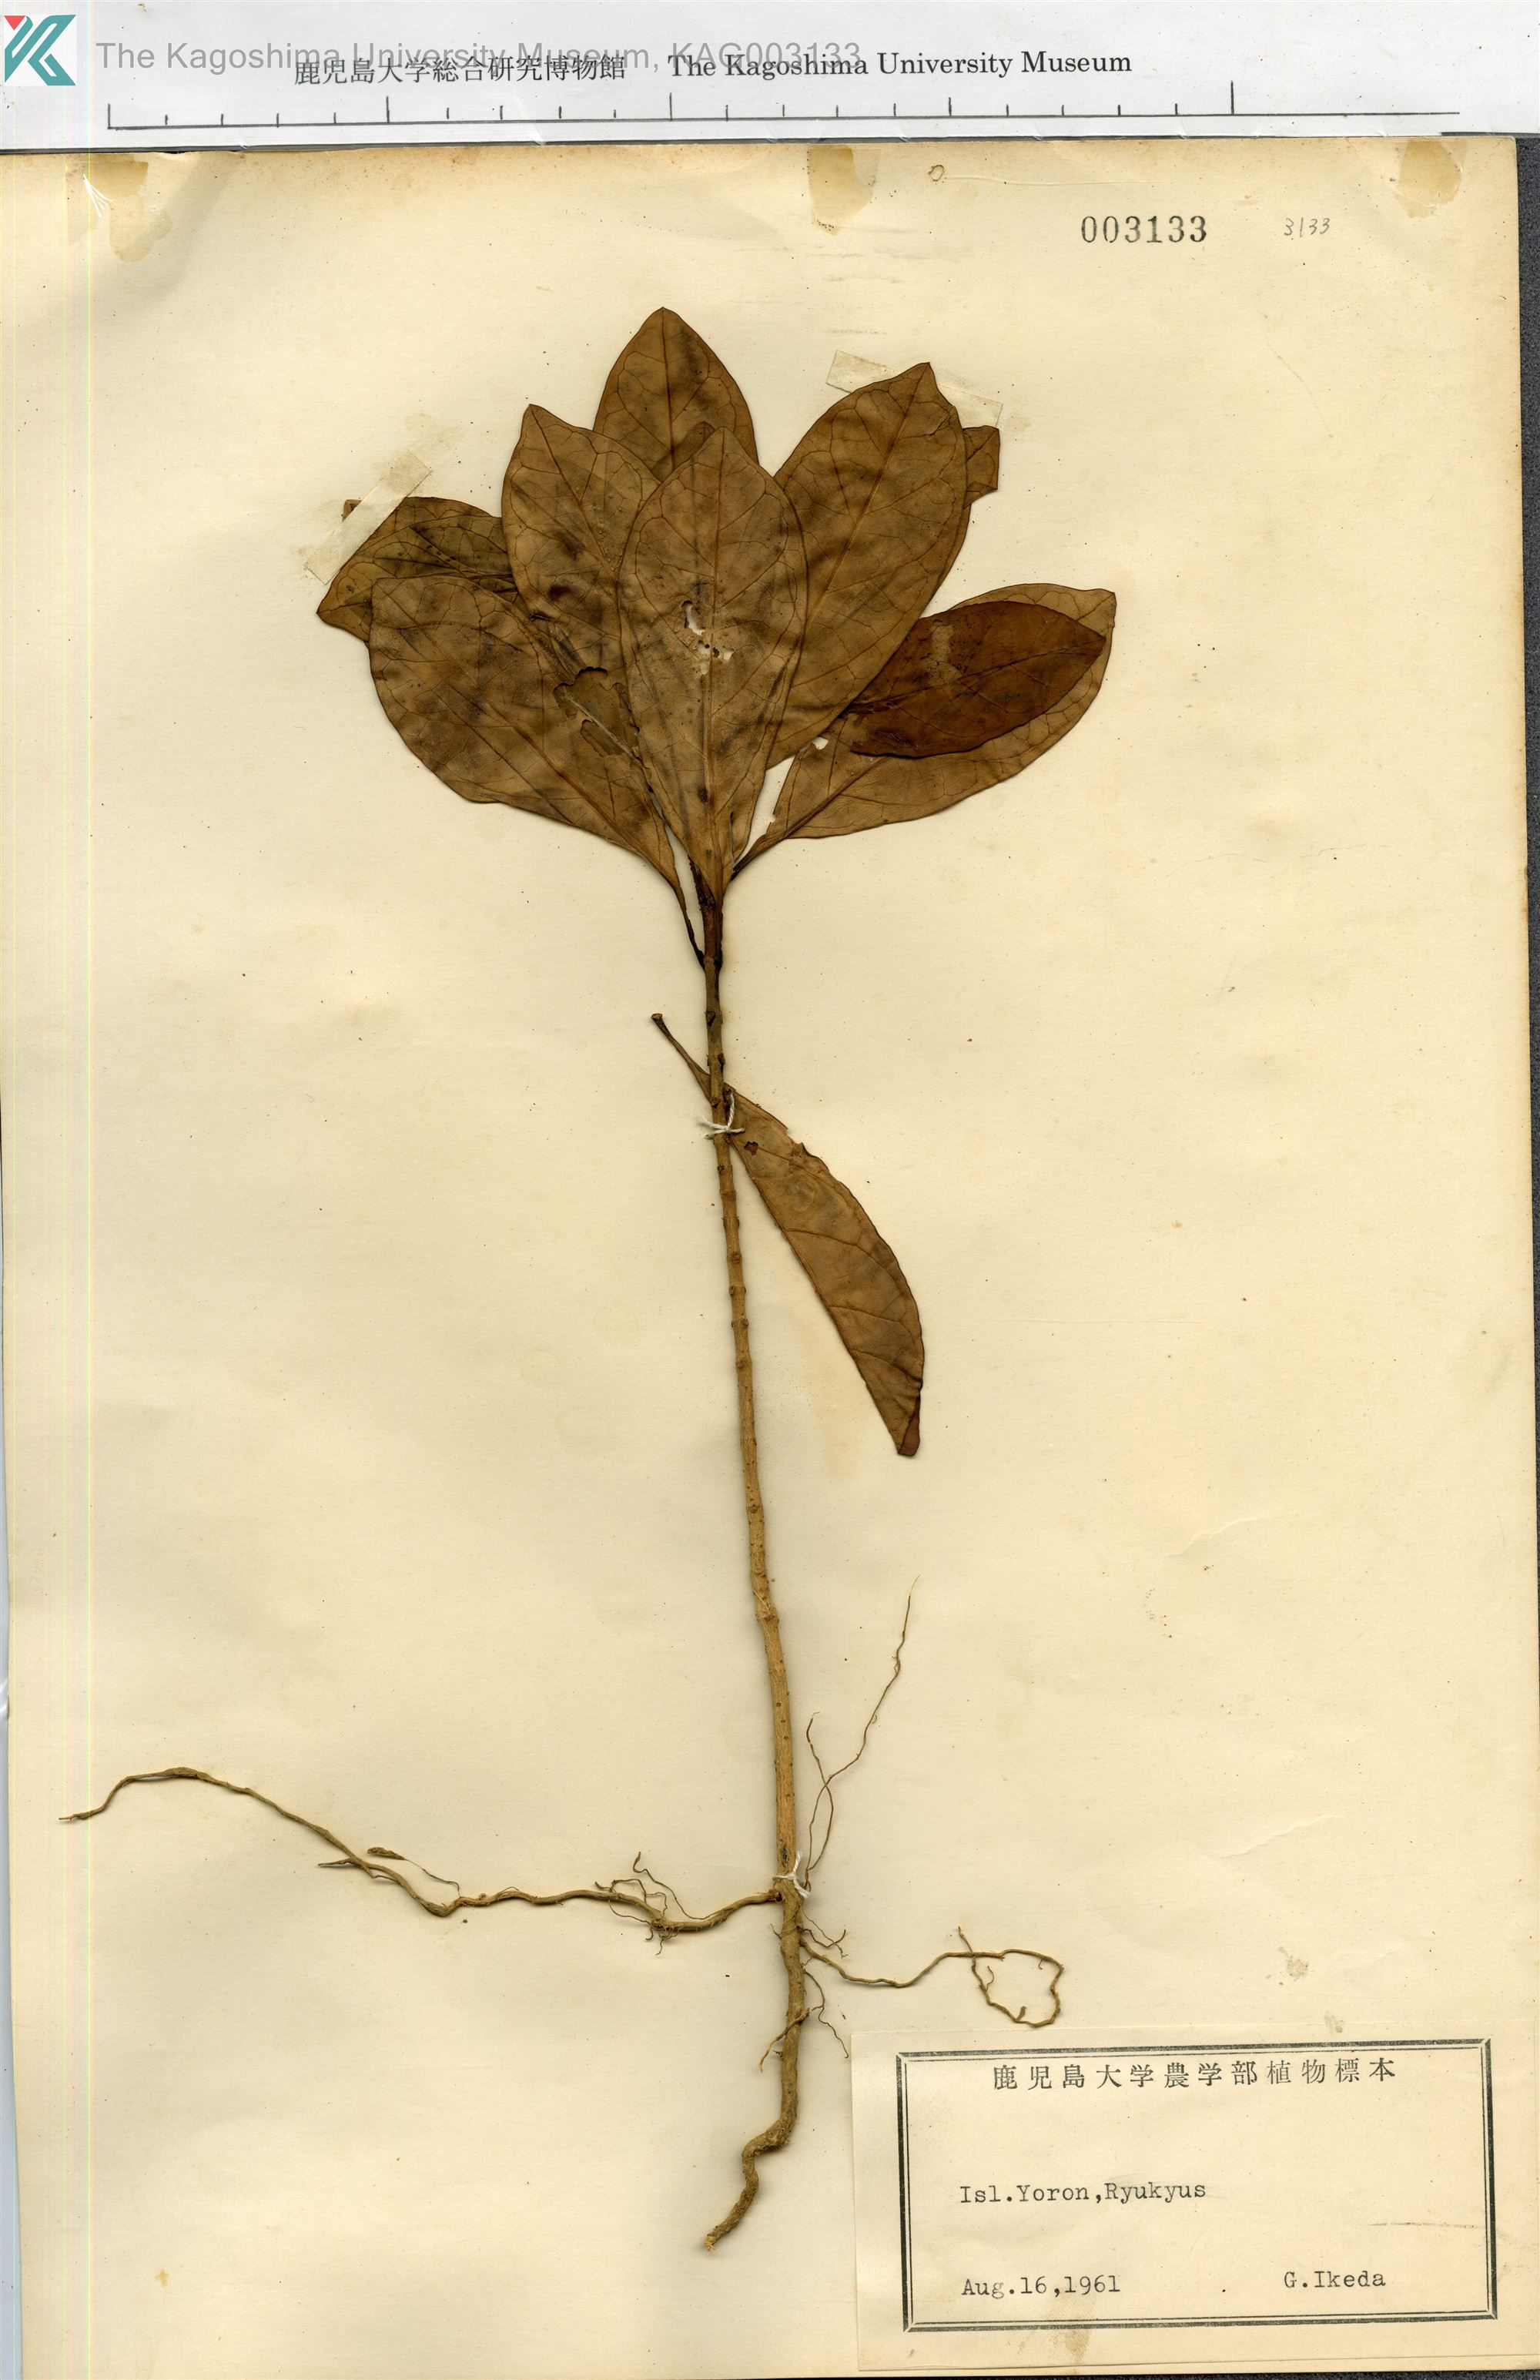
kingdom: Plantae
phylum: Tracheophyta
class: Magnoliopsida
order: Gentianales
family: Apocynaceae
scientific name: Apocynaceae
